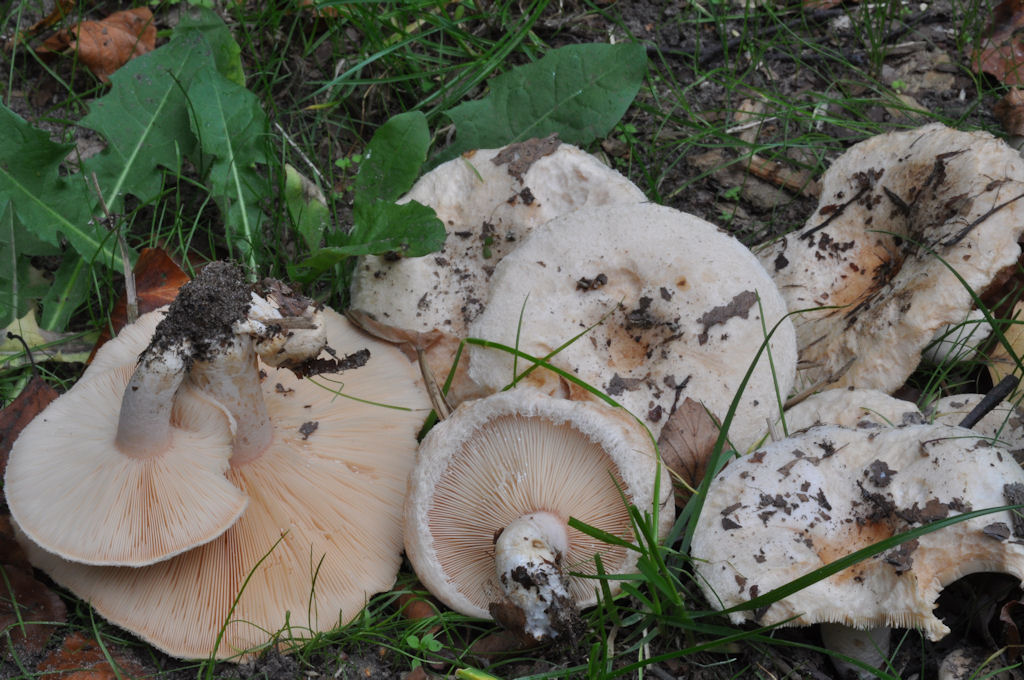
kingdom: Fungi
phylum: Basidiomycota
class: Agaricomycetes
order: Russulales
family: Russulaceae
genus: Lactarius
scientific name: Lactarius pubescens
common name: dunet mælkehat
